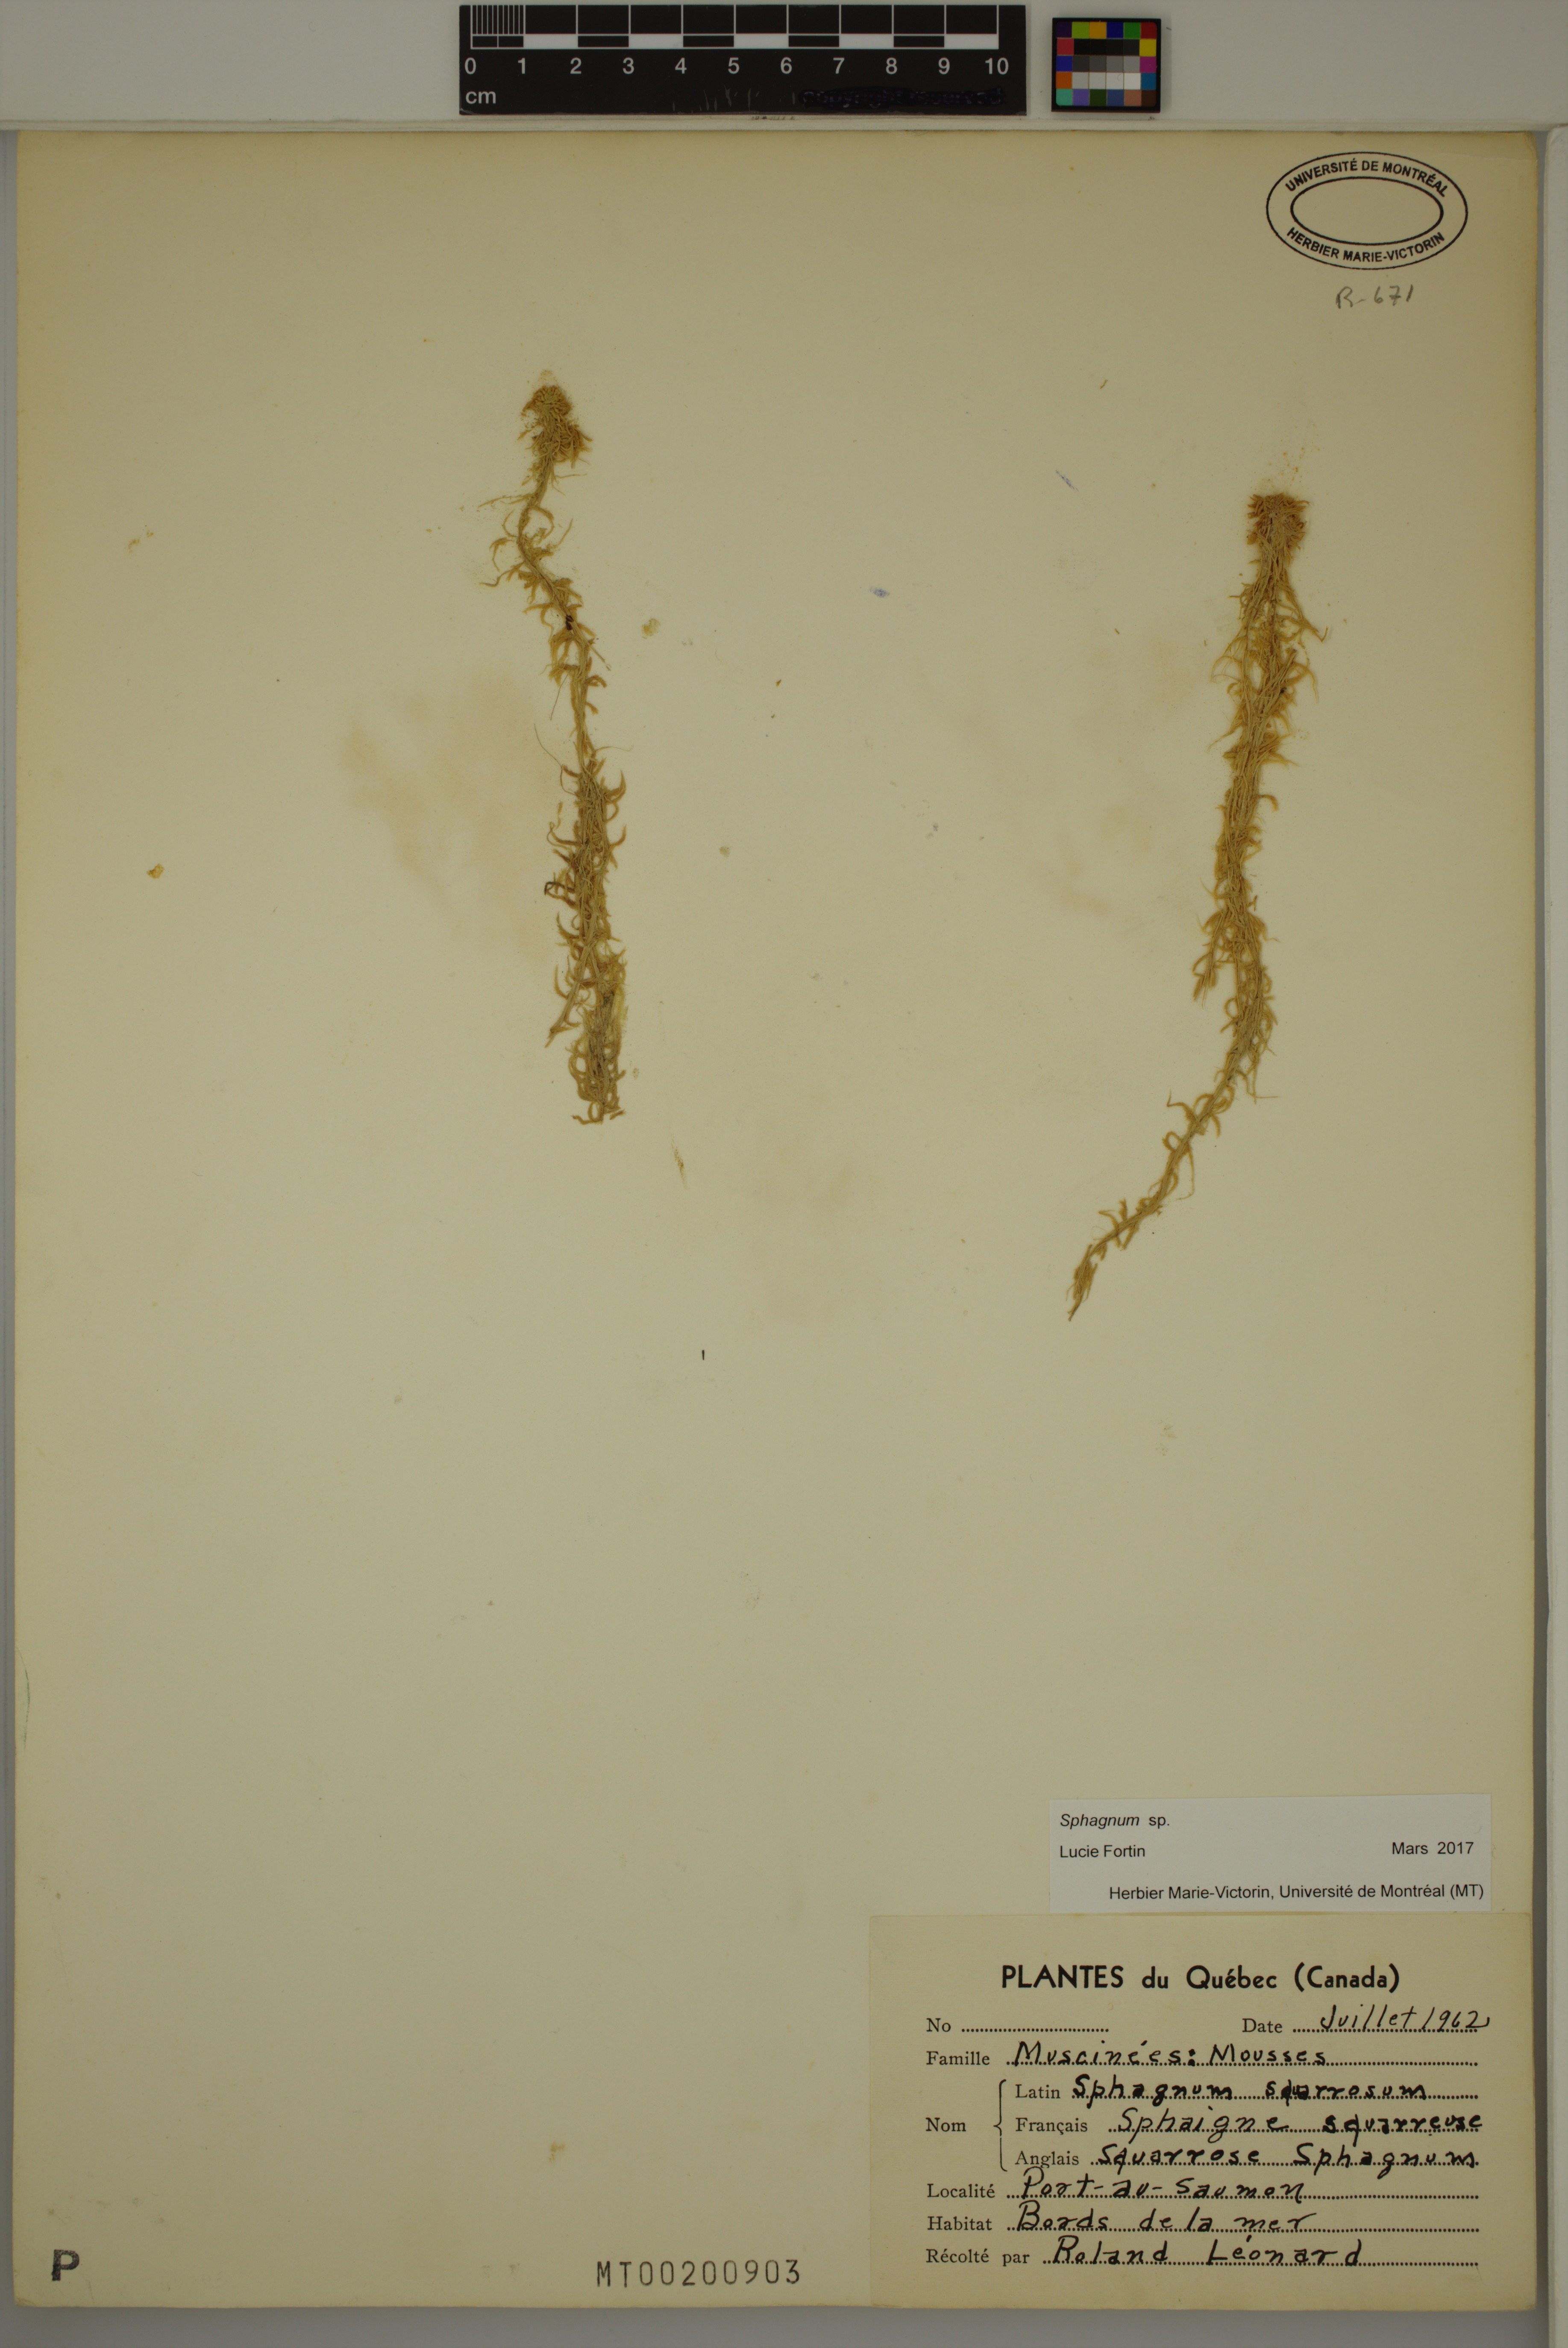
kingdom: Plantae
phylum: Bryophyta
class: Sphagnopsida
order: Sphagnales
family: Sphagnaceae
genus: Sphagnum
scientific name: Sphagnum
